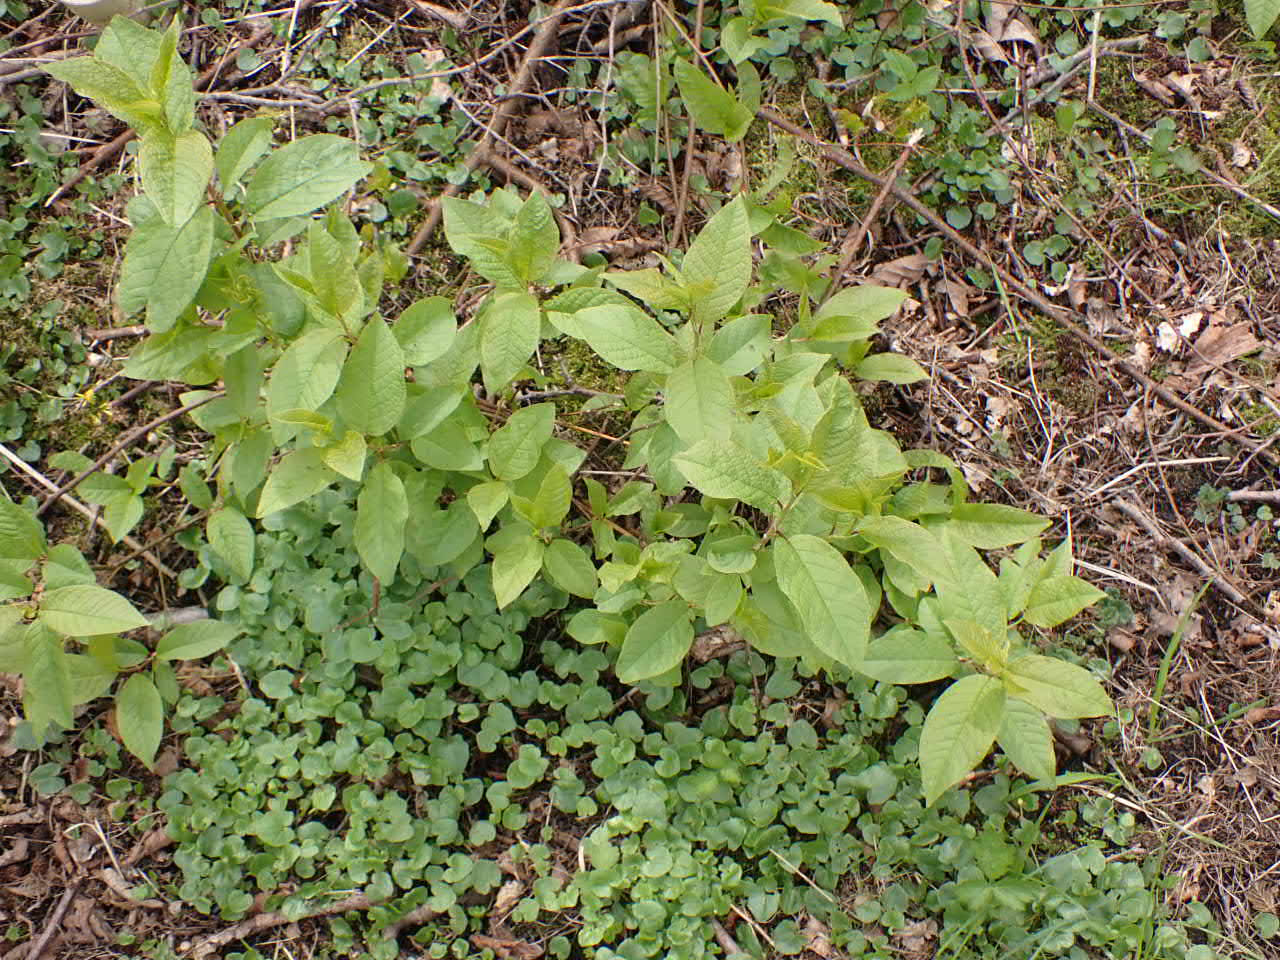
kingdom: Plantae
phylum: Tracheophyta
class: Magnoliopsida
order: Rosales
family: Rosaceae
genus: Prunus
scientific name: Prunus padus
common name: Almindelig hæg
